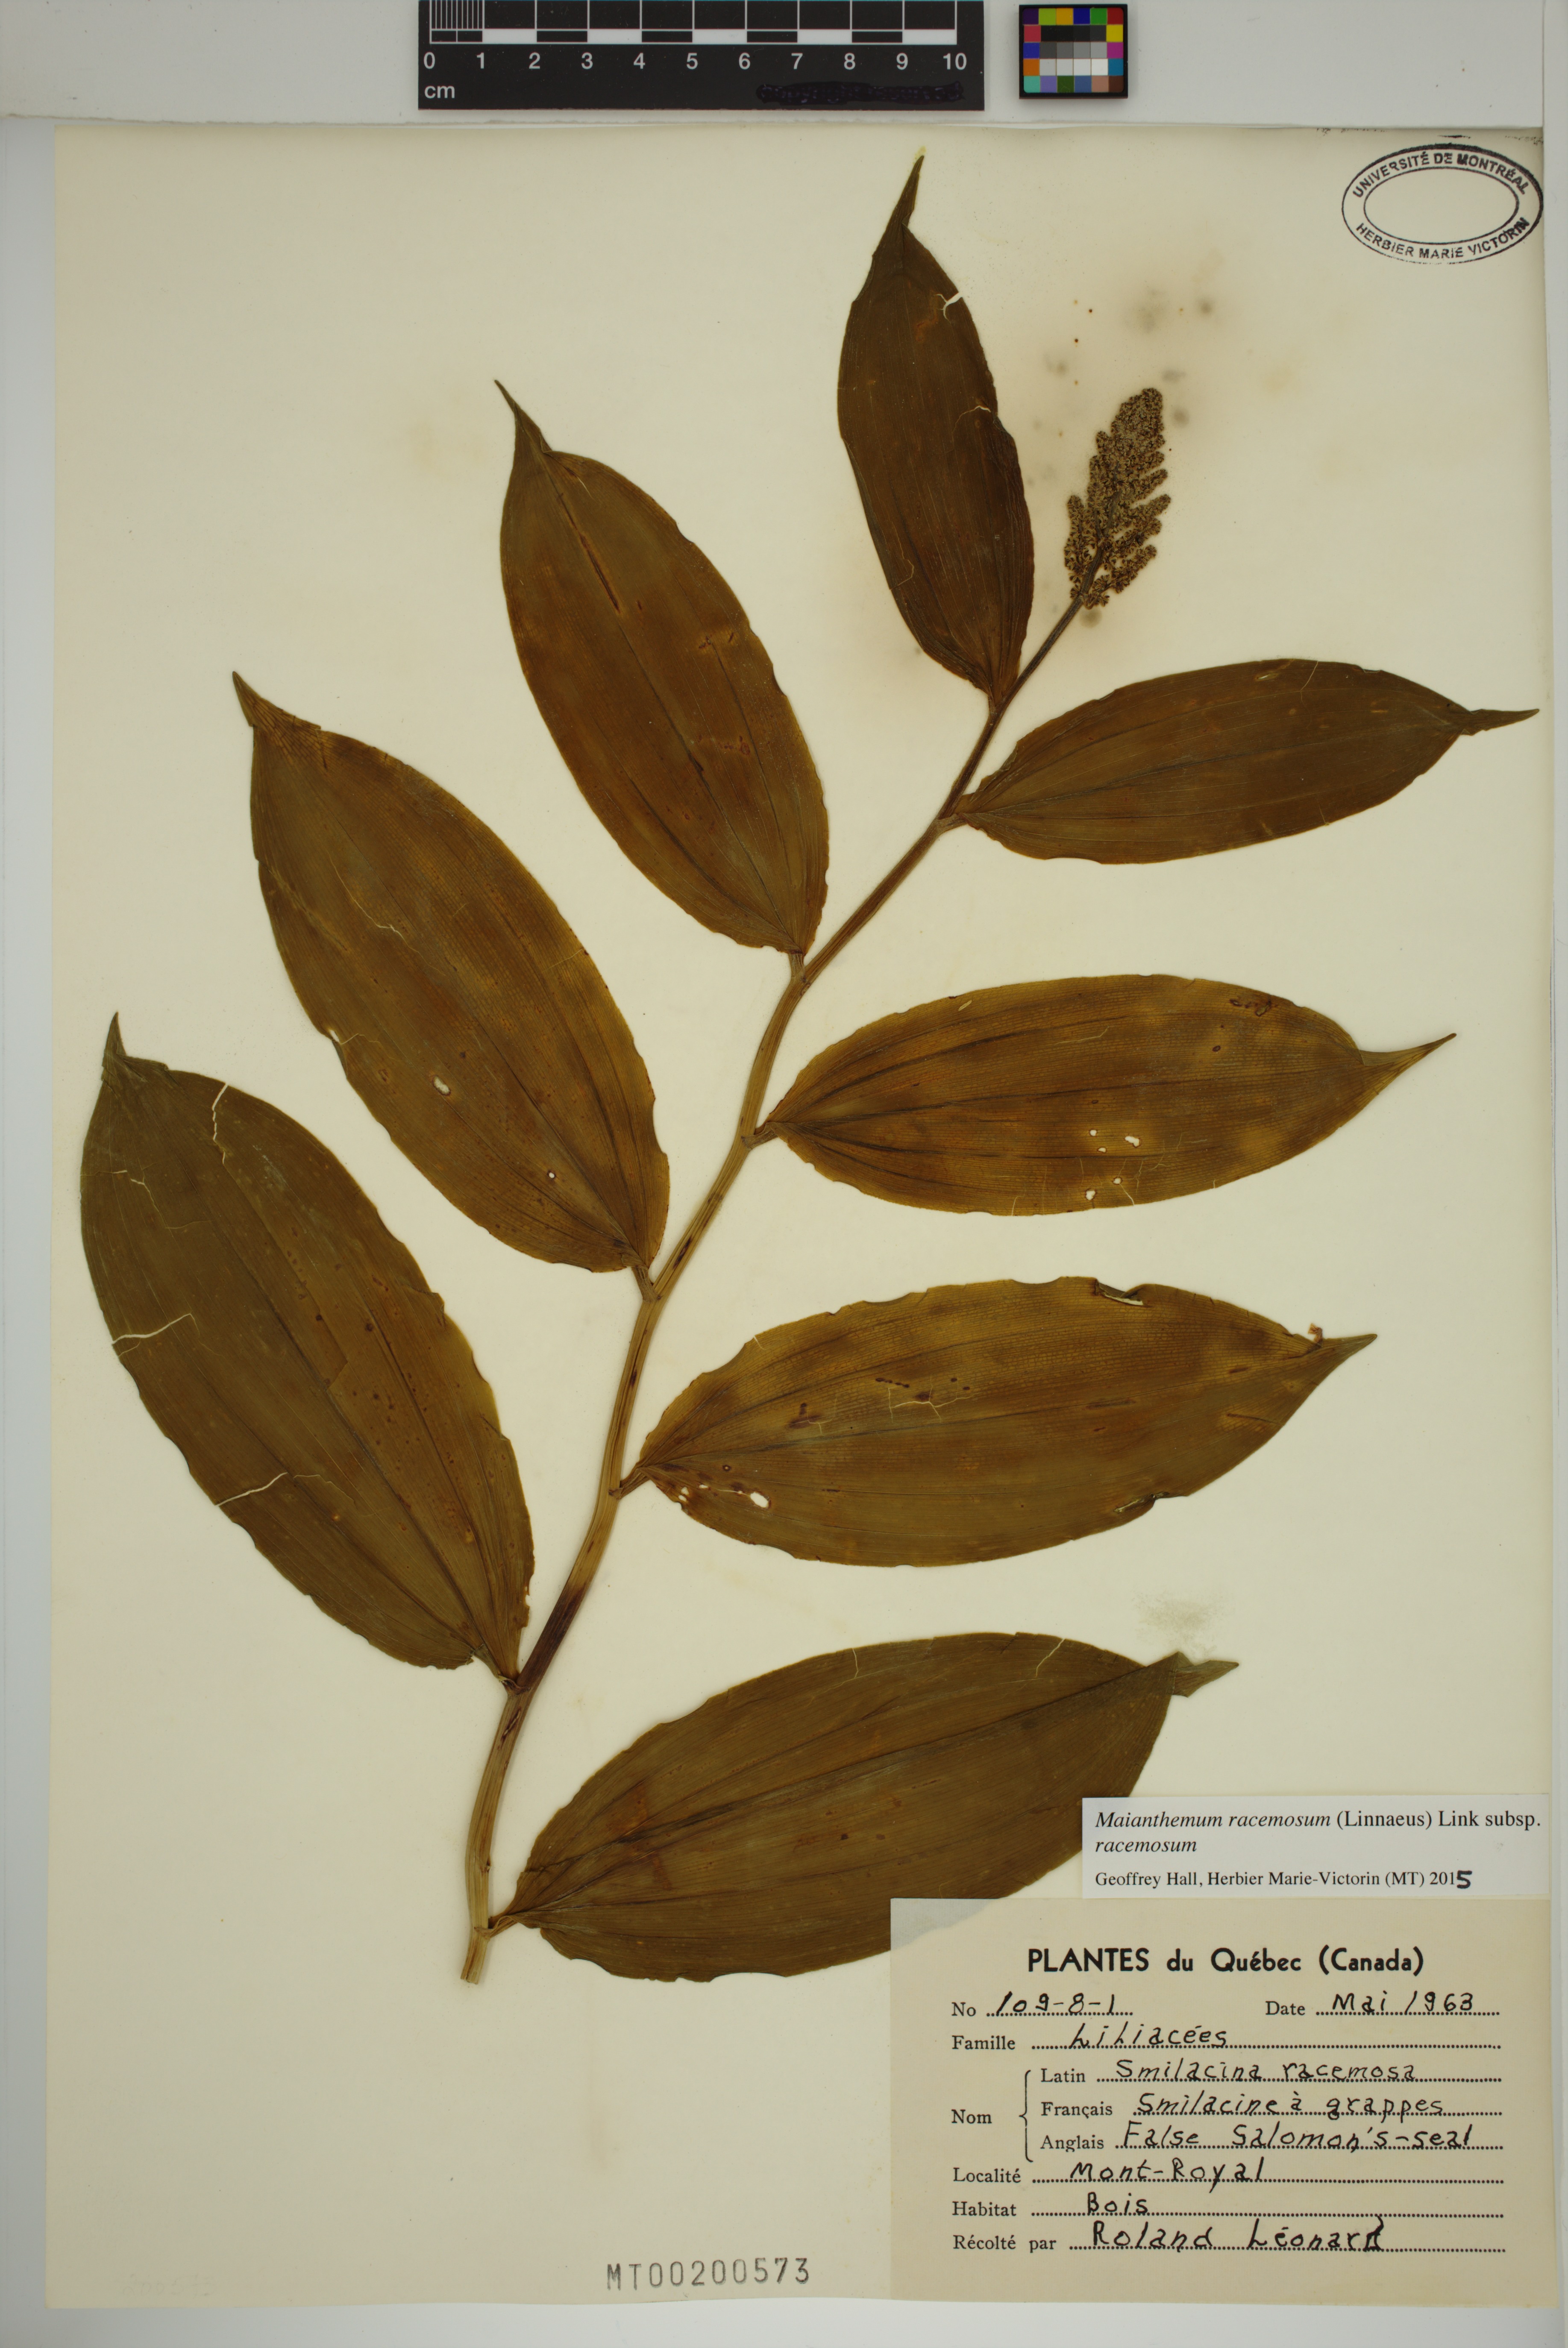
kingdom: Plantae
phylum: Tracheophyta
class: Liliopsida
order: Asparagales
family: Asparagaceae
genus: Maianthemum
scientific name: Maianthemum racemosum
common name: False spikenard
